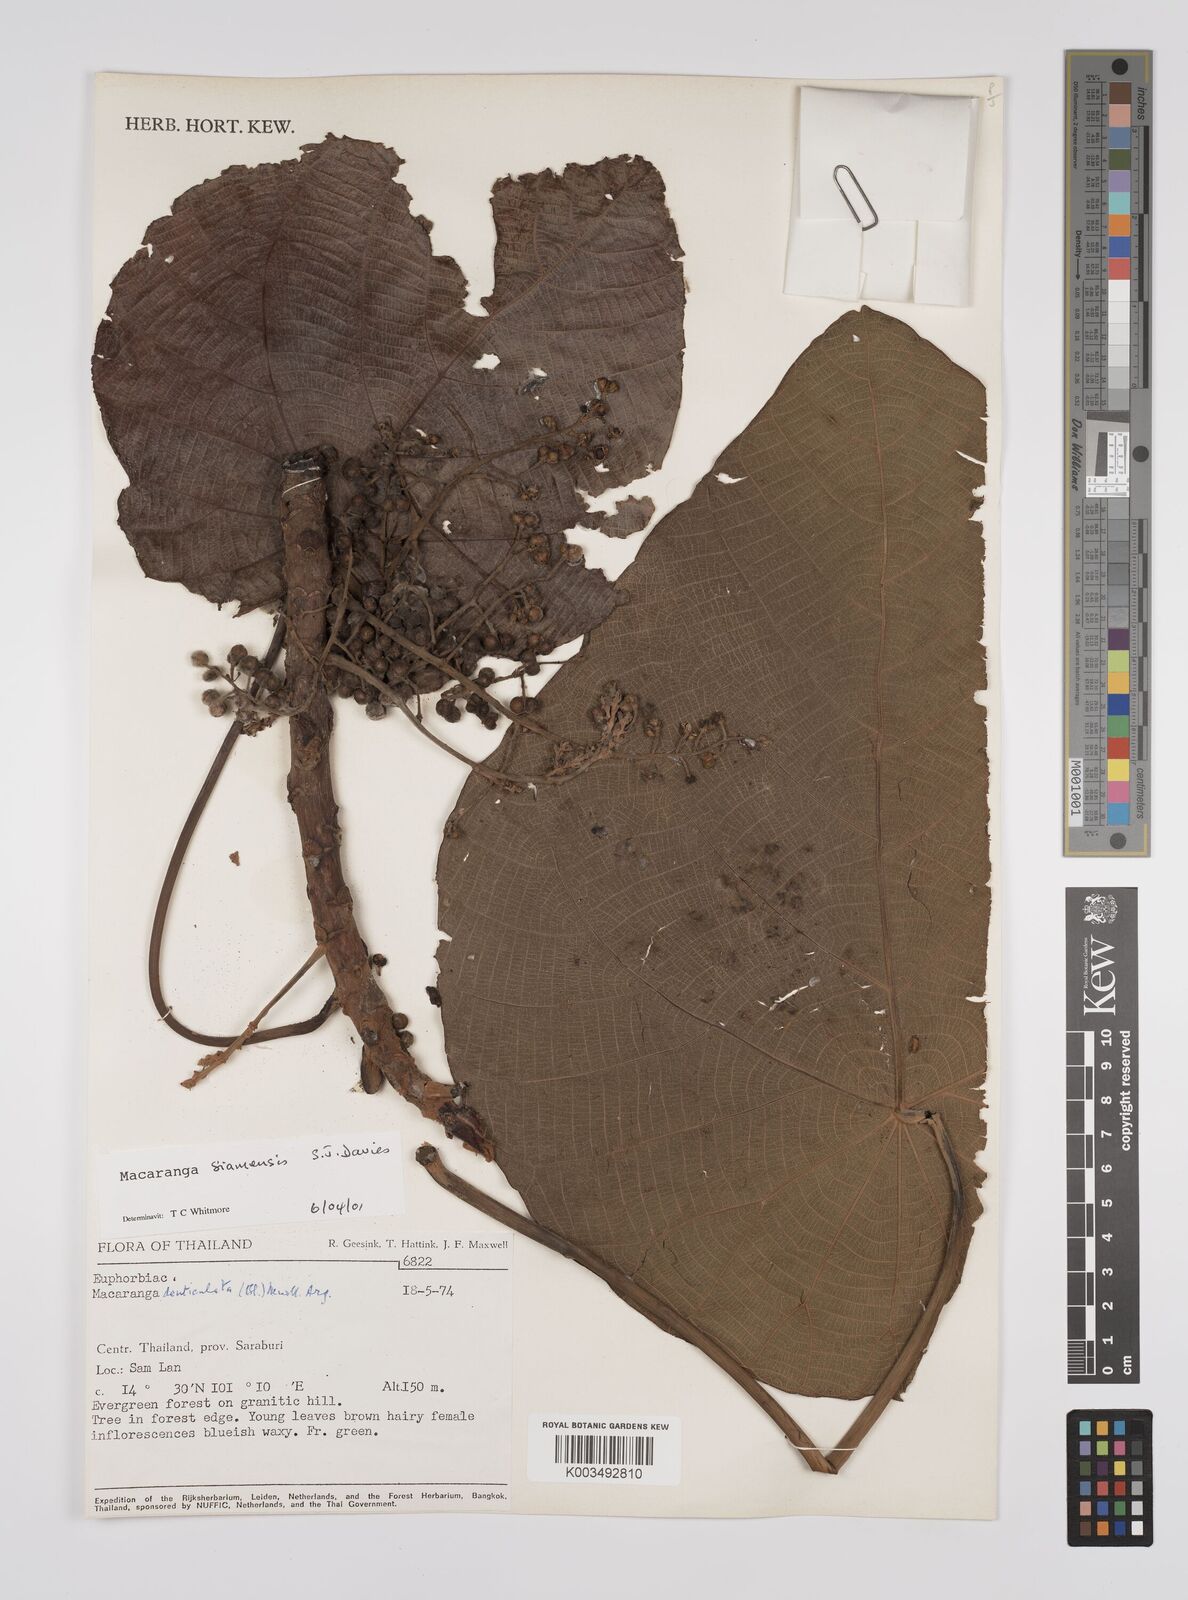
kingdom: Plantae
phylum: Tracheophyta
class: Magnoliopsida
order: Malpighiales
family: Euphorbiaceae
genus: Macaranga
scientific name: Macaranga siamensis
